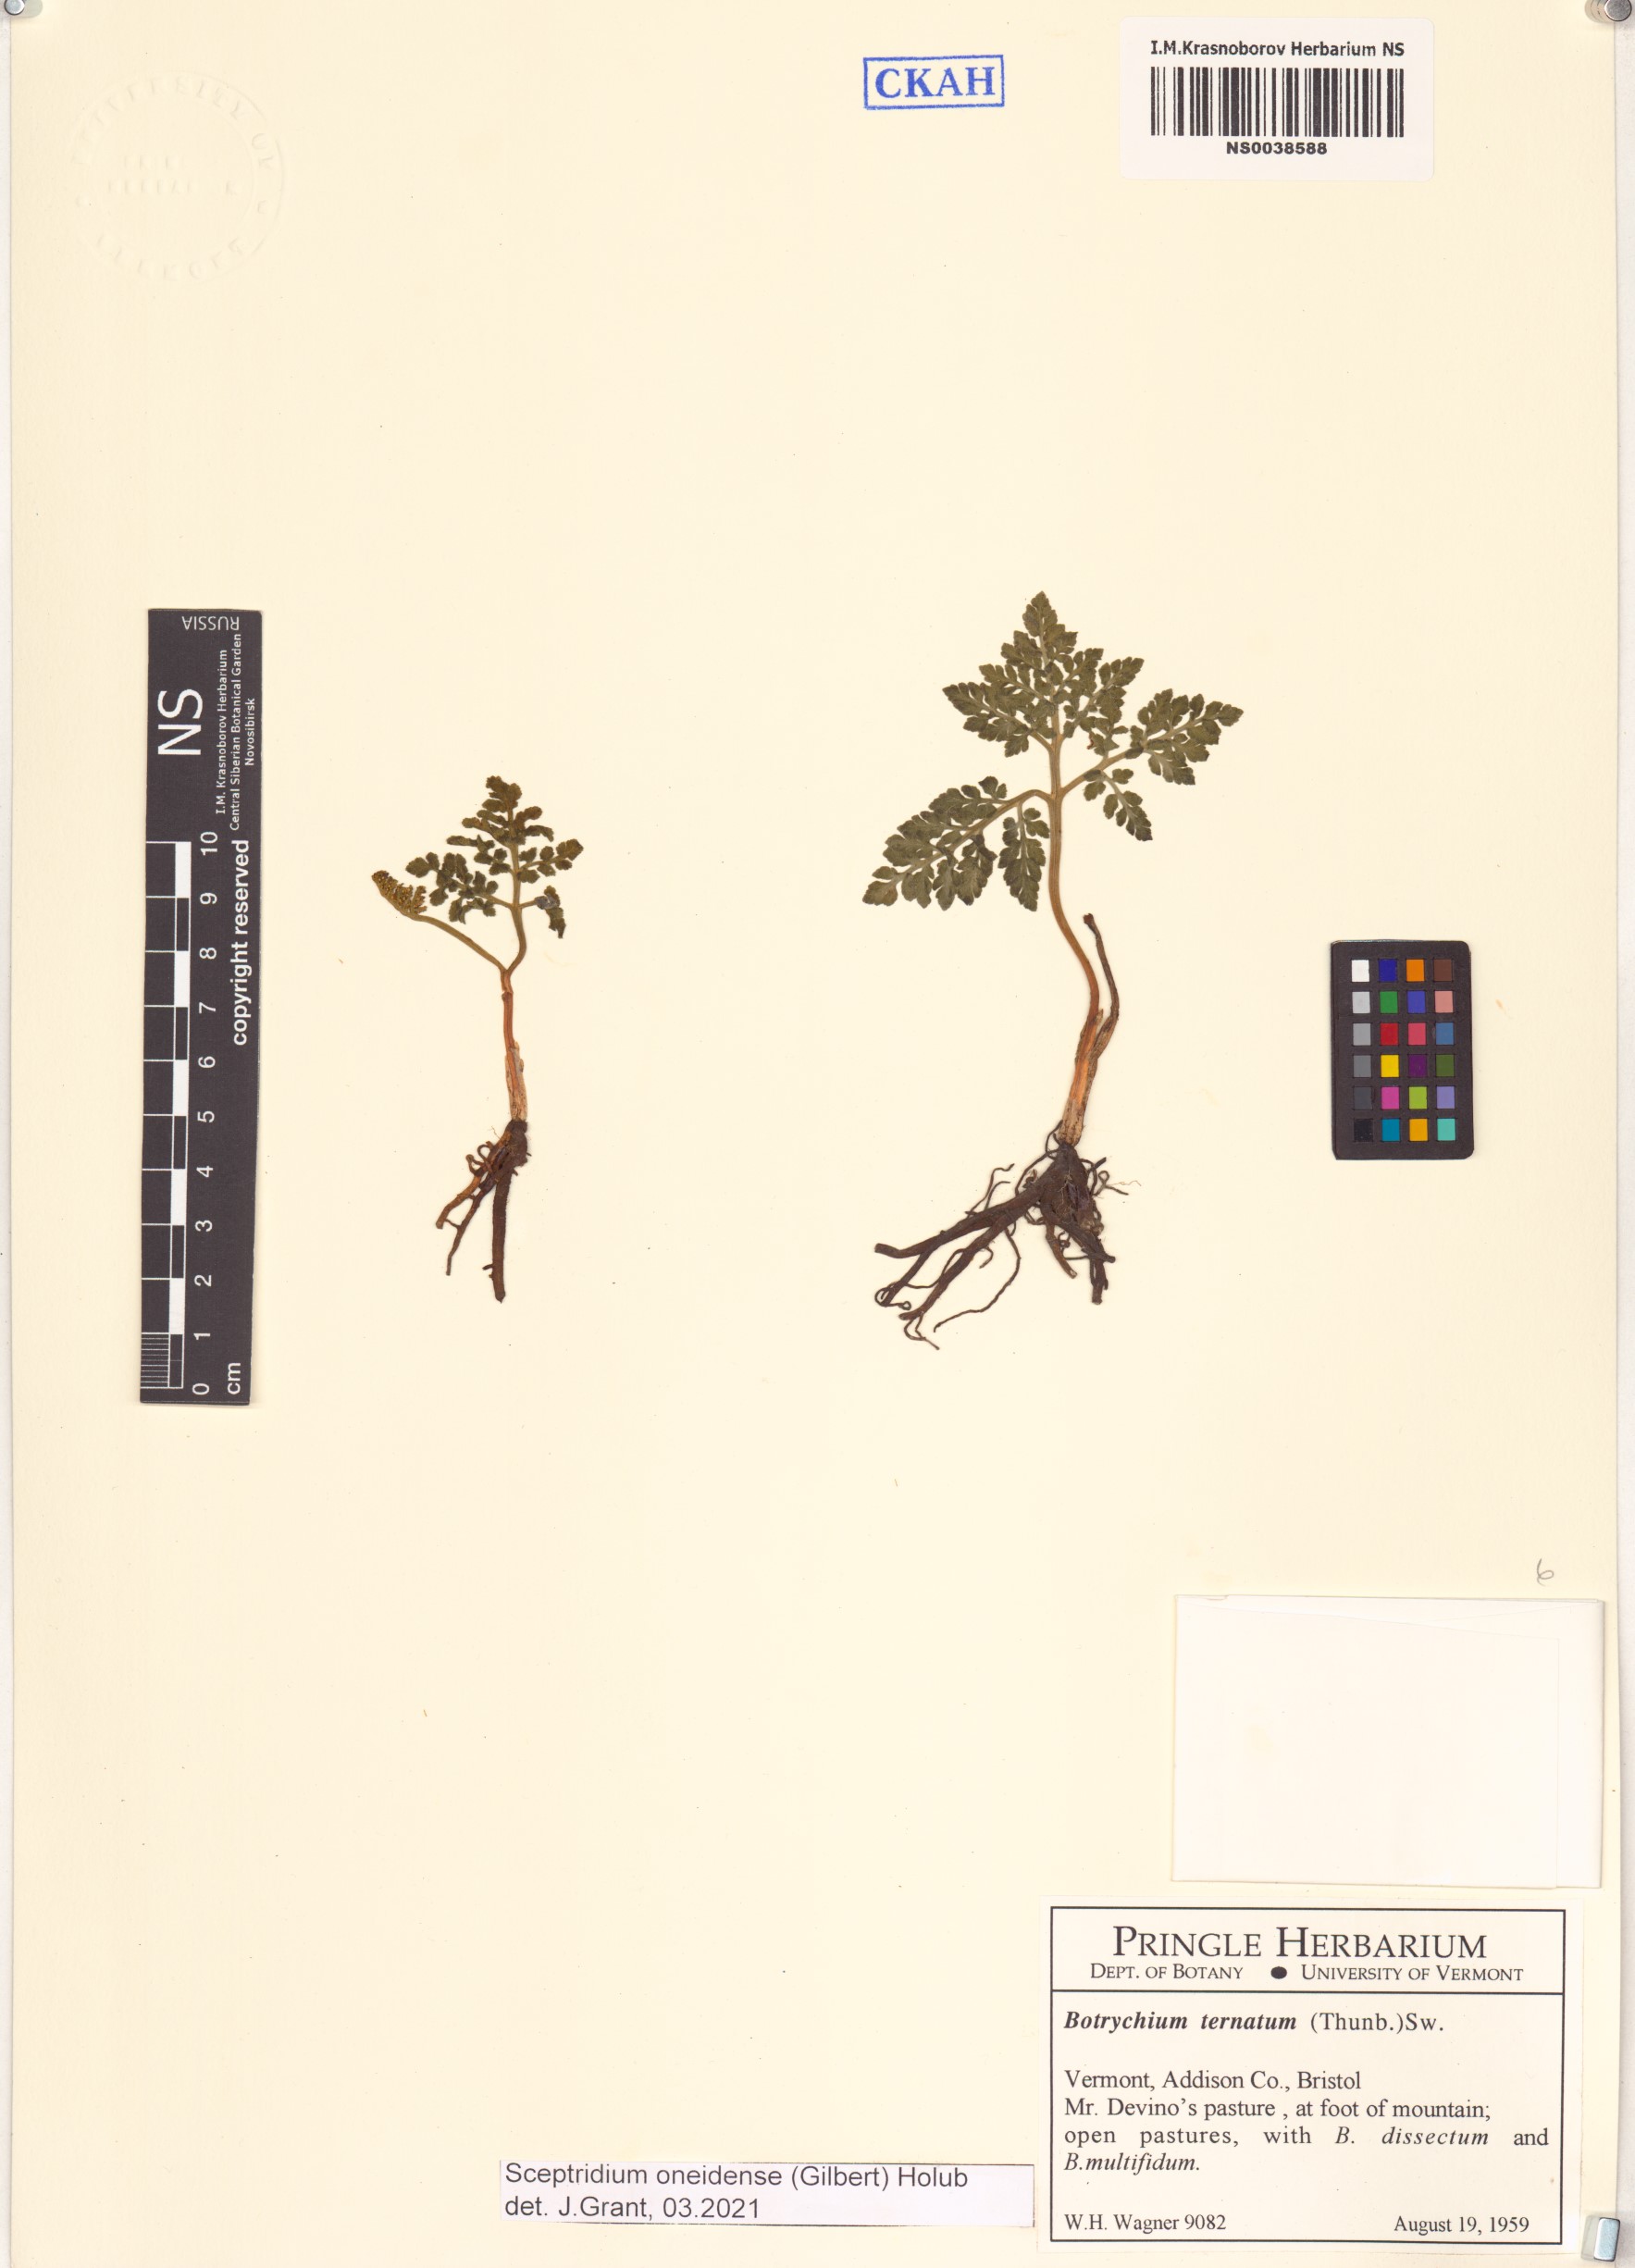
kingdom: Plantae
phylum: Tracheophyta
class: Polypodiopsida
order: Ophioglossales
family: Ophioglossaceae
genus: Sceptridium
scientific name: Sceptridium oneidense
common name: Blunt-lobed grapefern
